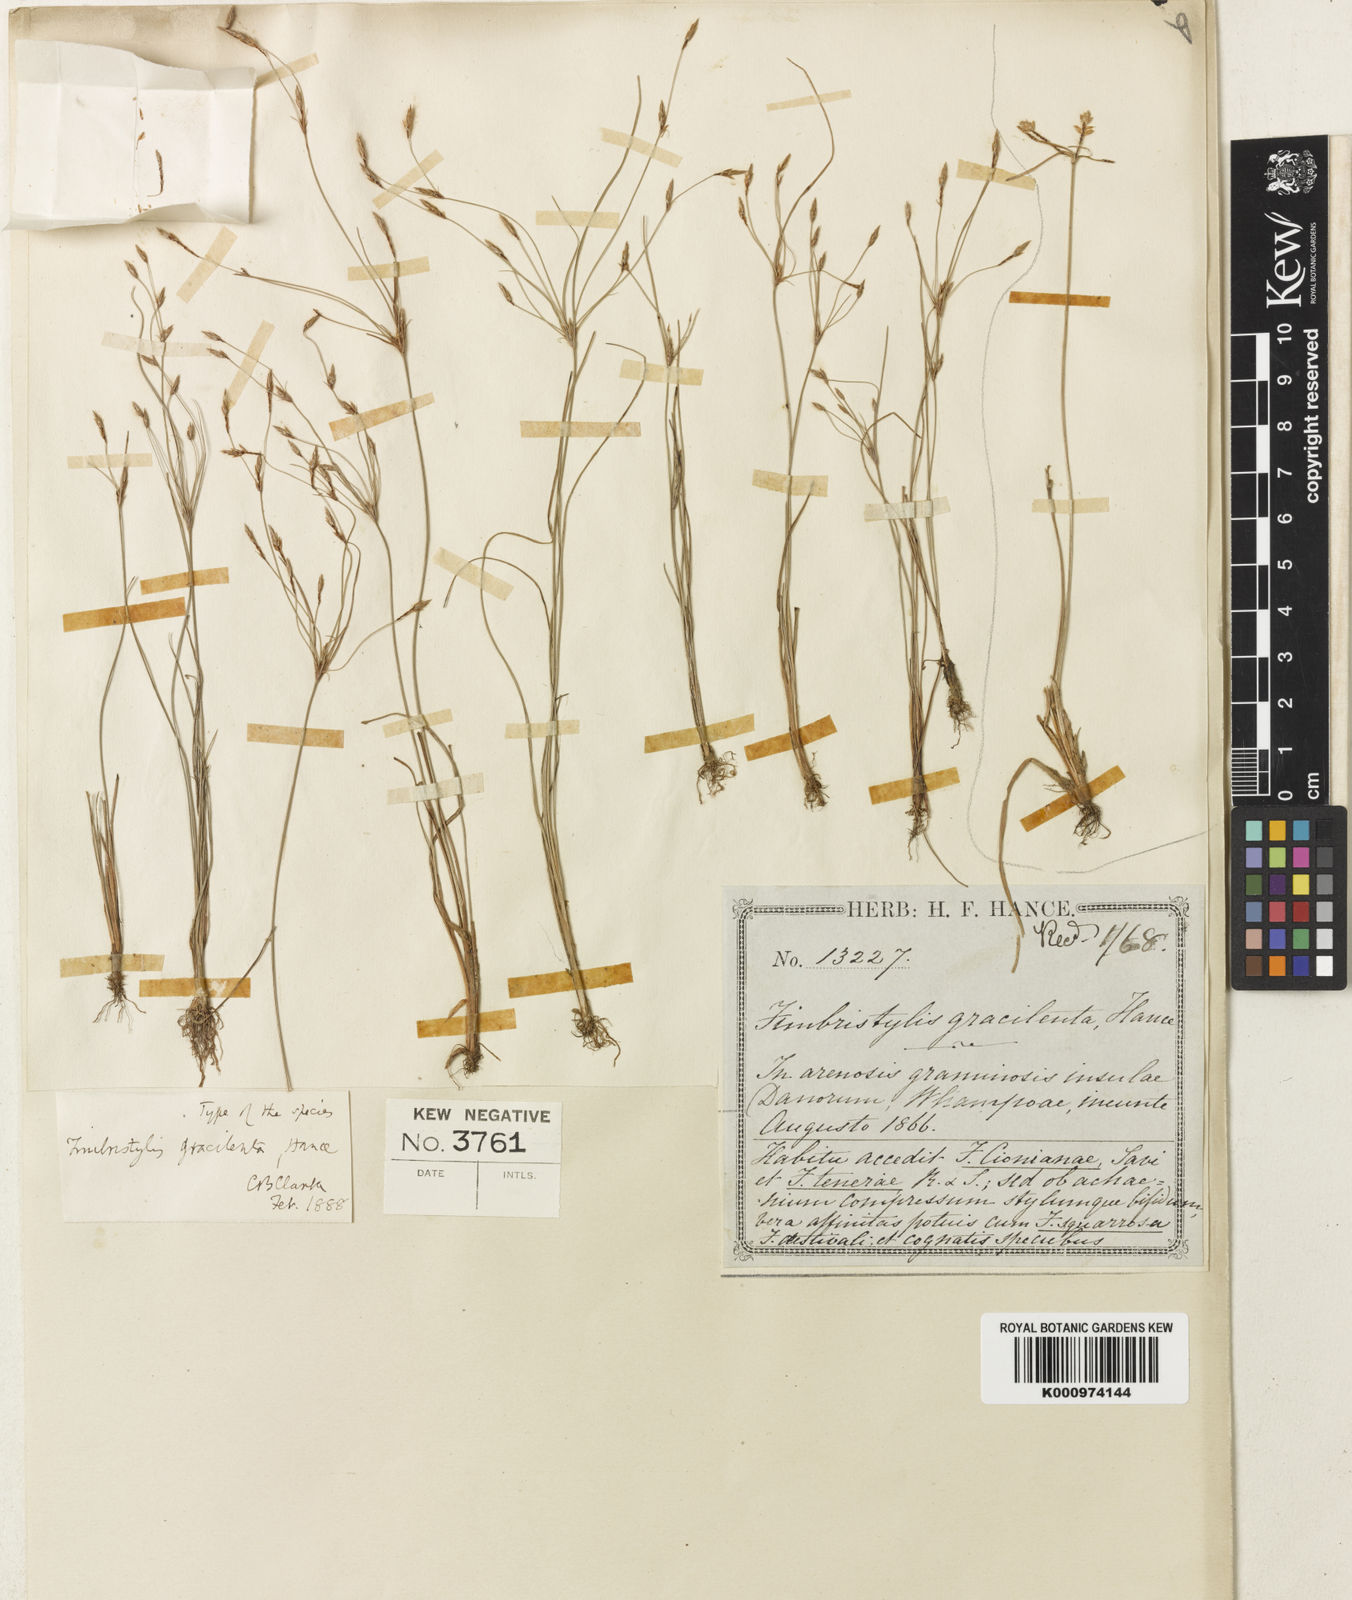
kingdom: Plantae
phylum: Tracheophyta
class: Liliopsida
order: Poales
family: Cyperaceae
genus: Fimbristylis
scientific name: Fimbristylis gracilenta
